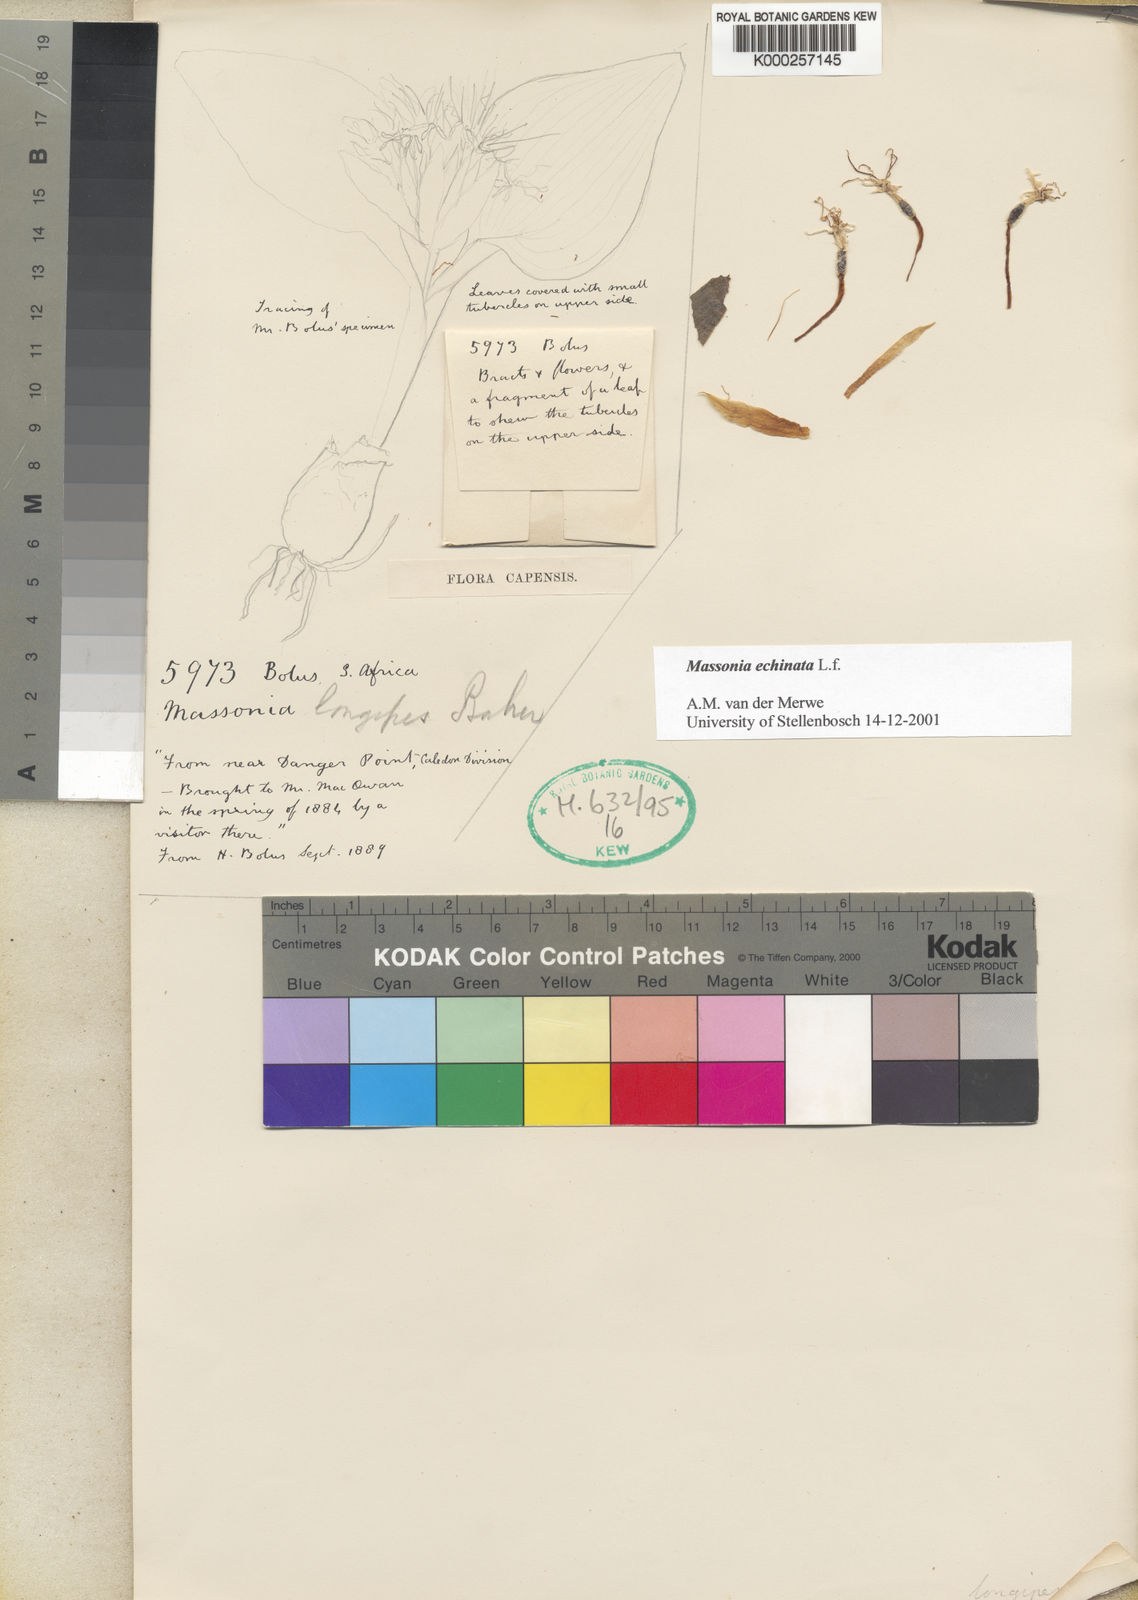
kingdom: Plantae
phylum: Tracheophyta
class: Liliopsida
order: Asparagales
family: Asparagaceae
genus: Massonia
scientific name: Massonia echinata
